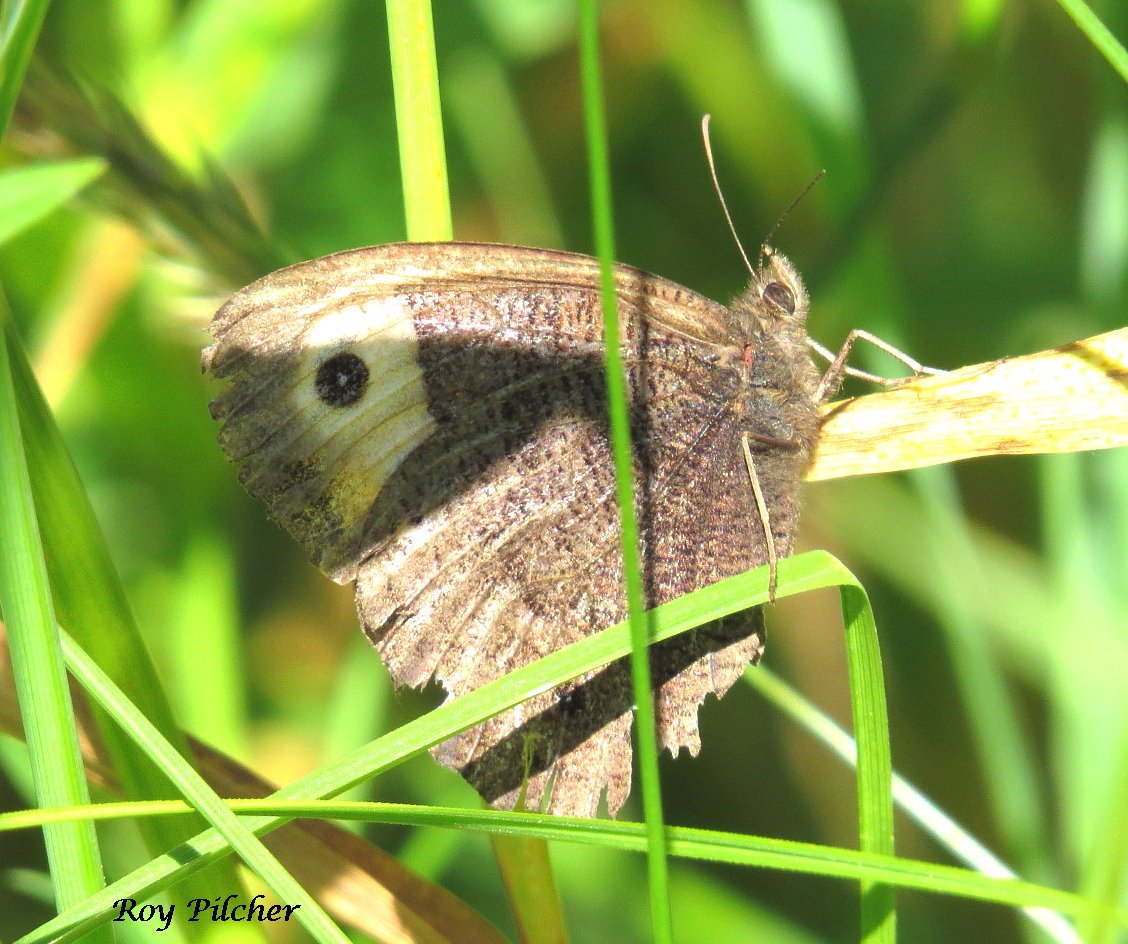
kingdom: Animalia
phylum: Arthropoda
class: Insecta
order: Lepidoptera
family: Nymphalidae
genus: Cercyonis
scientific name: Cercyonis pegala
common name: Common Wood-Nymph
